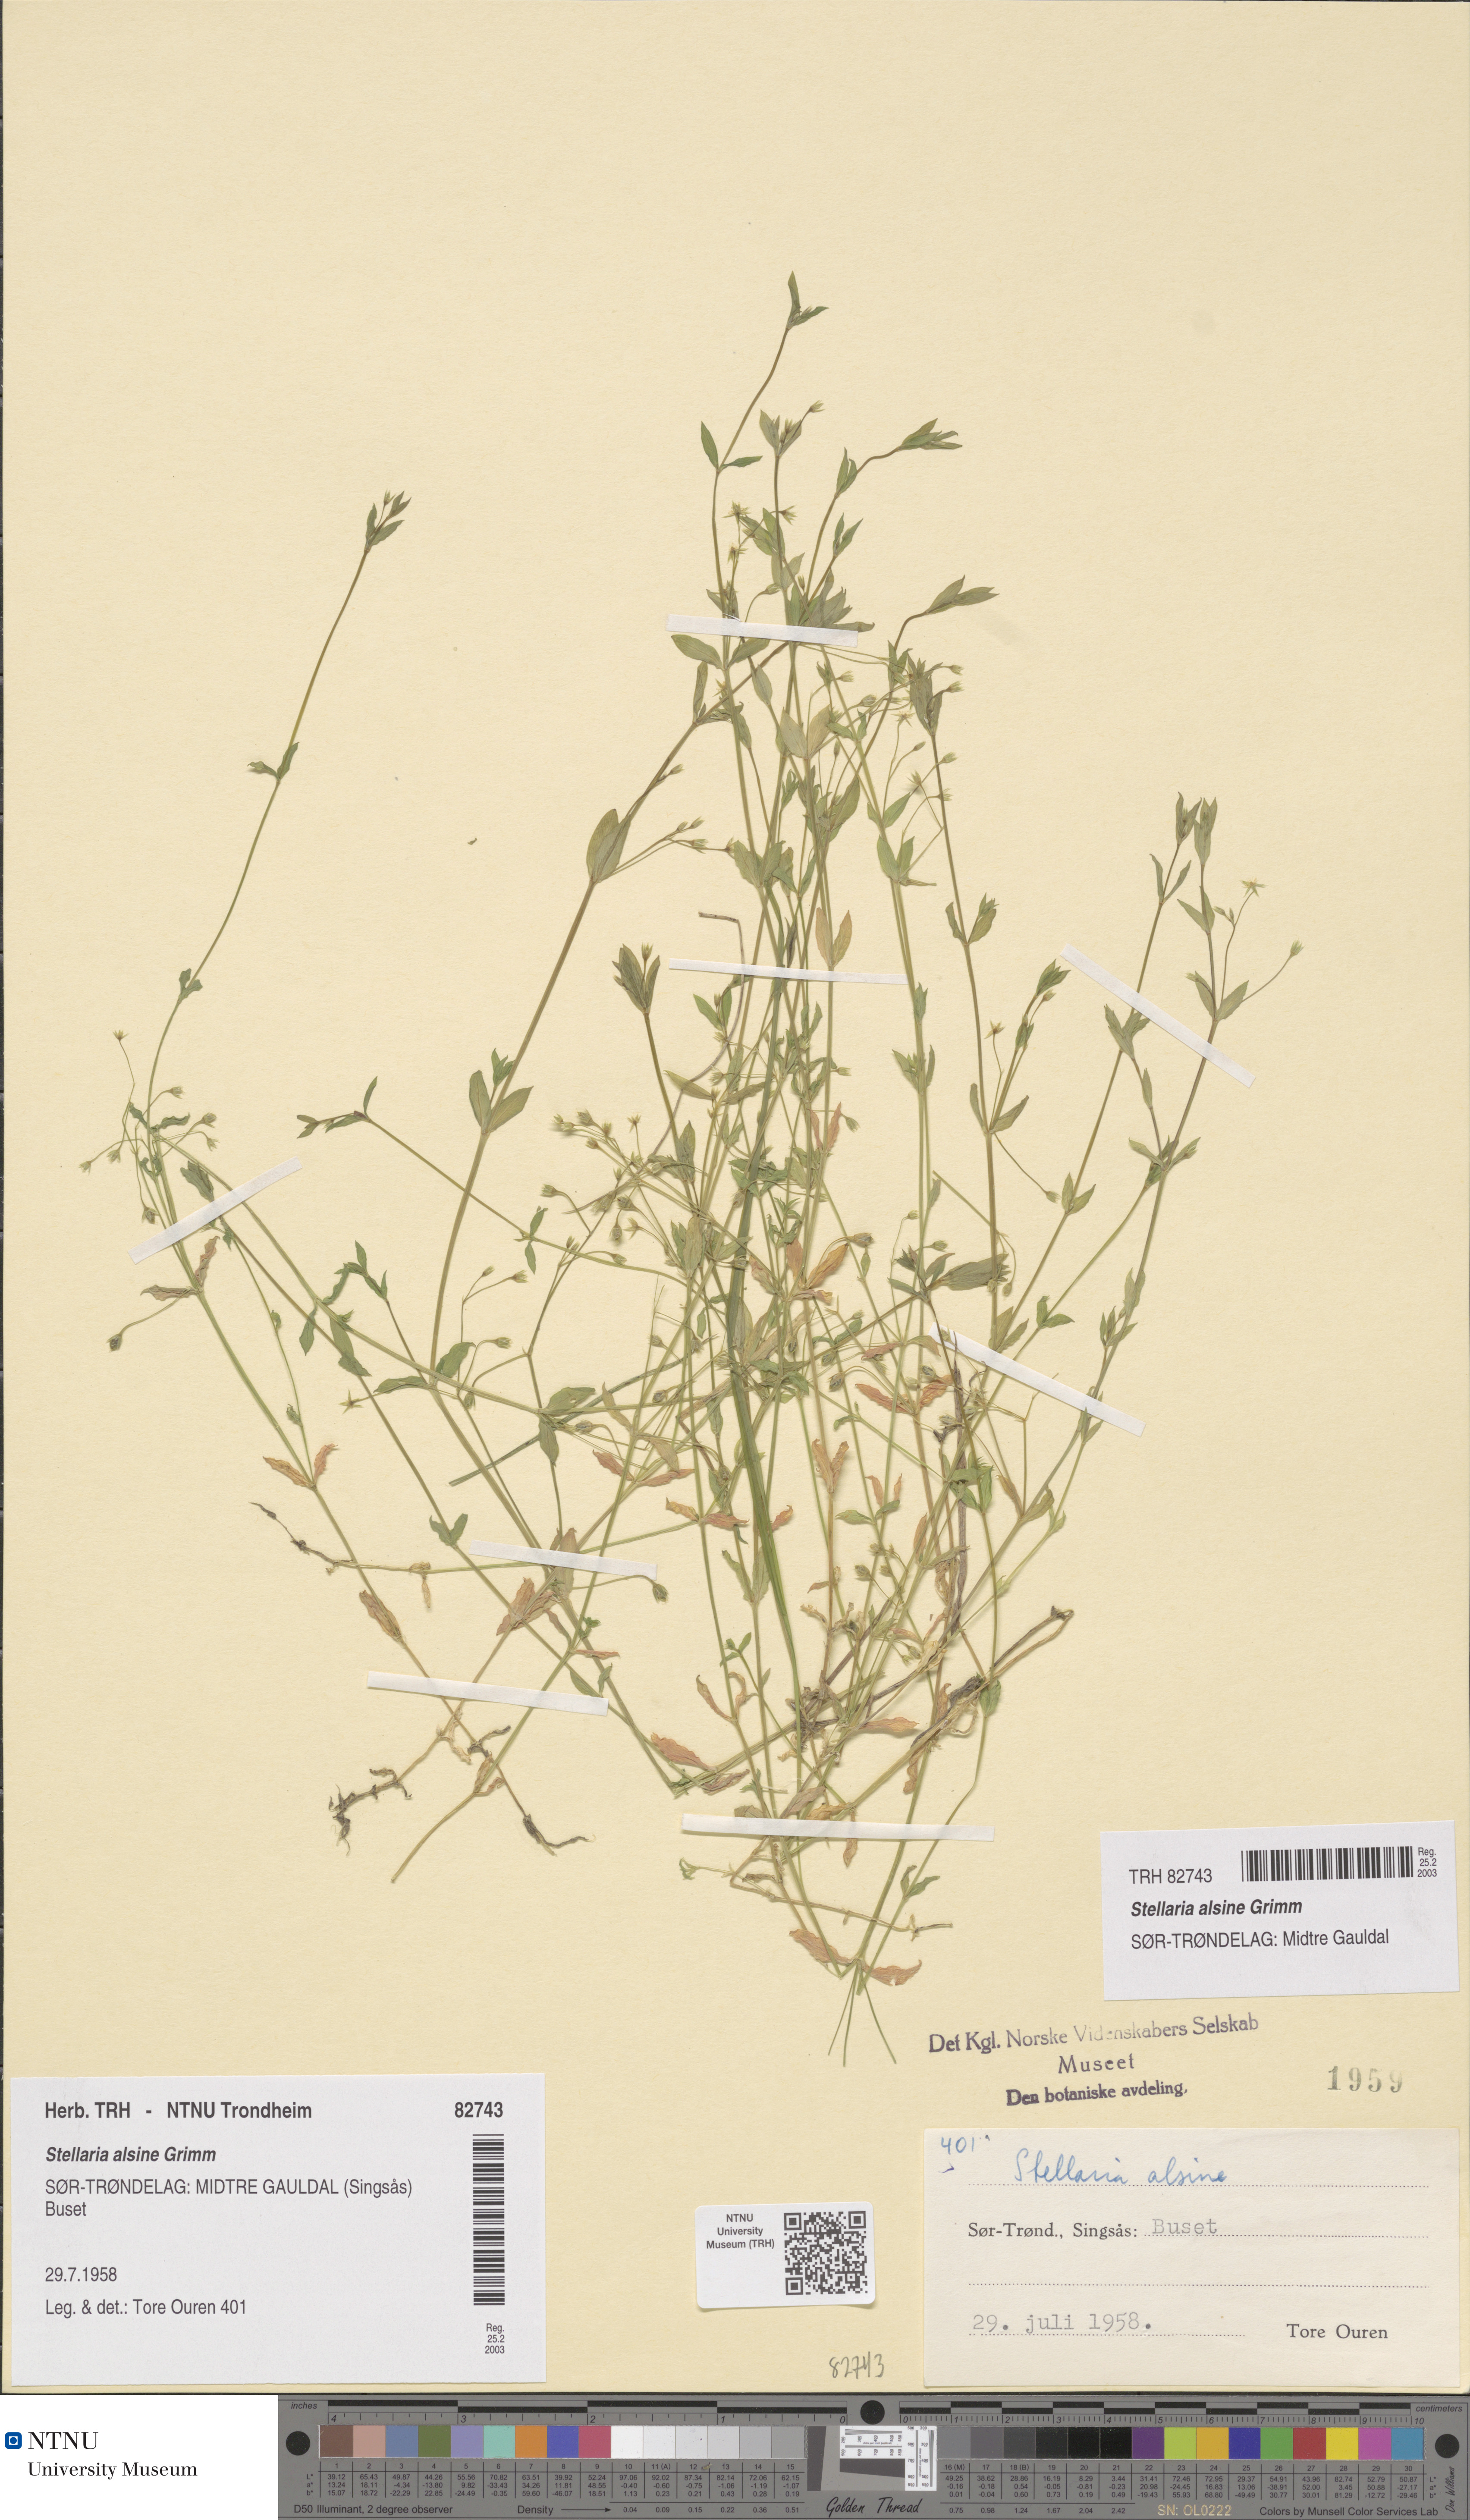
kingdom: Plantae
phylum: Tracheophyta
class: Magnoliopsida
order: Caryophyllales
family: Caryophyllaceae
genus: Stellaria
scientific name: Stellaria alsine
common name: Bog stitchwort
